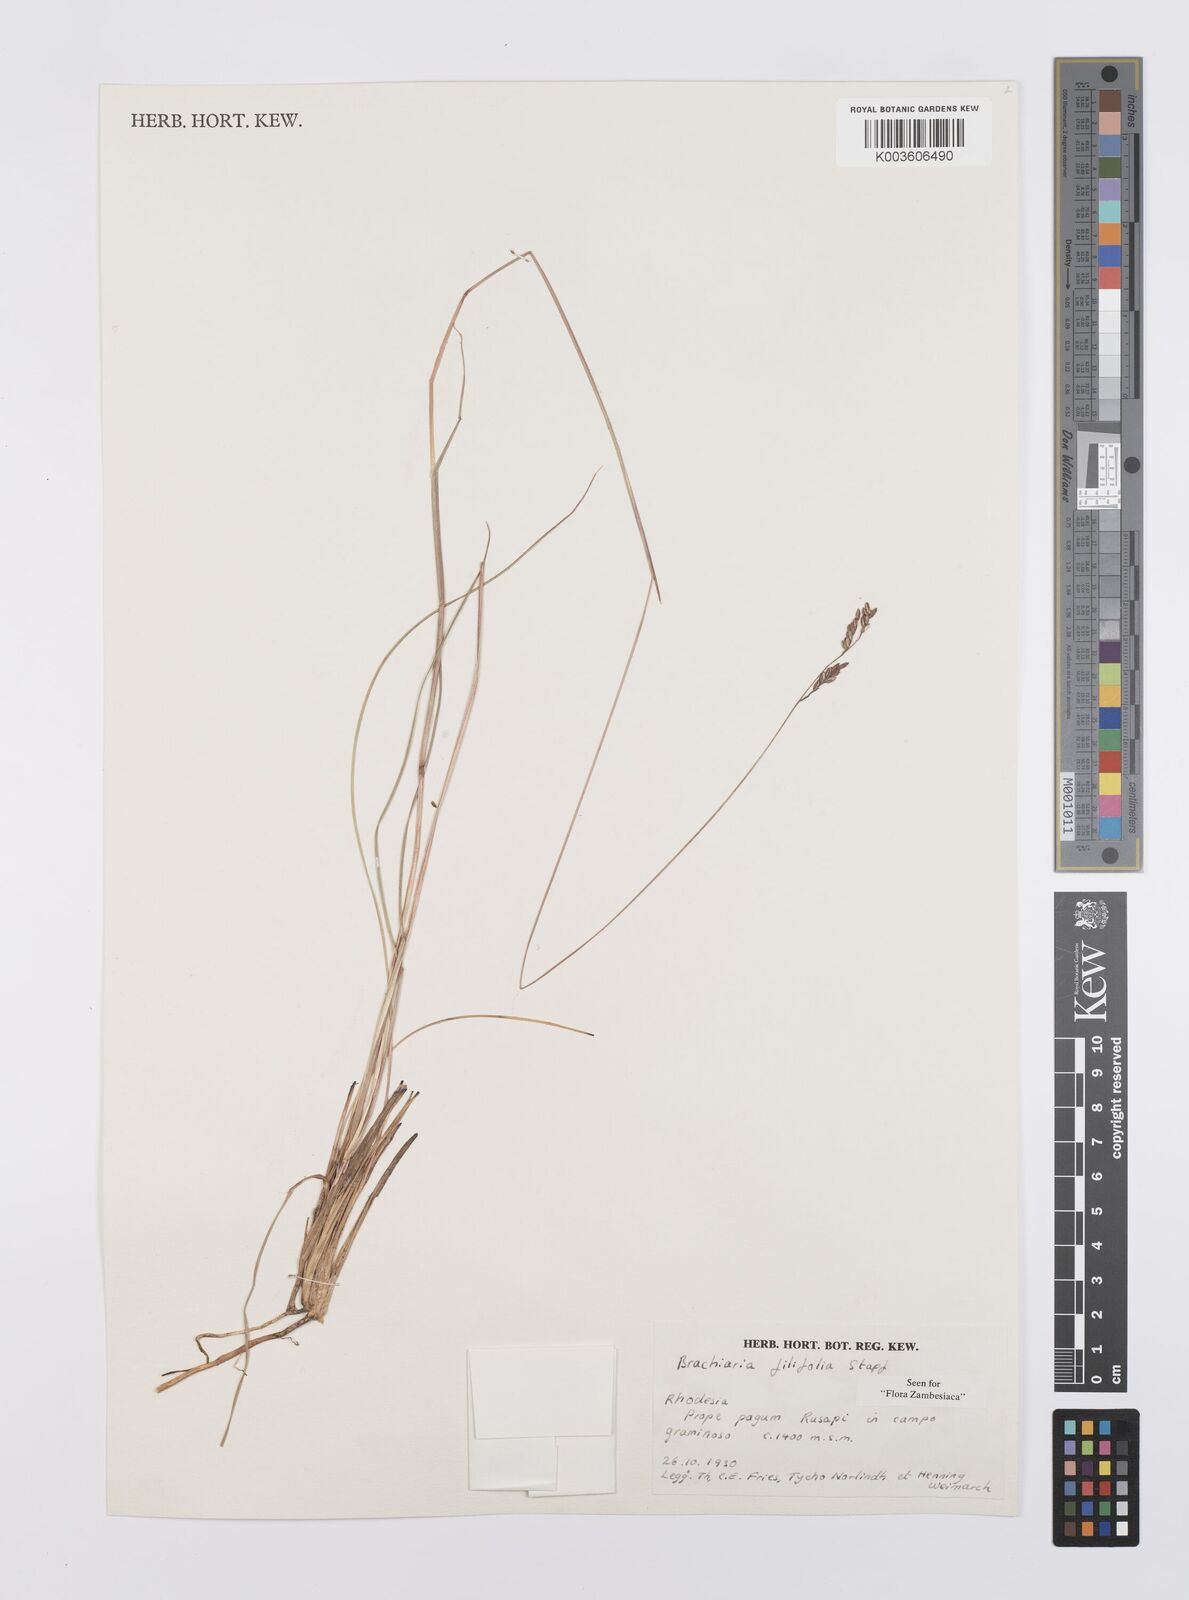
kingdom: Plantae
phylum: Tracheophyta
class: Liliopsida
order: Poales
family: Poaceae
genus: Urochloa
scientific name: Urochloa subulifolia
